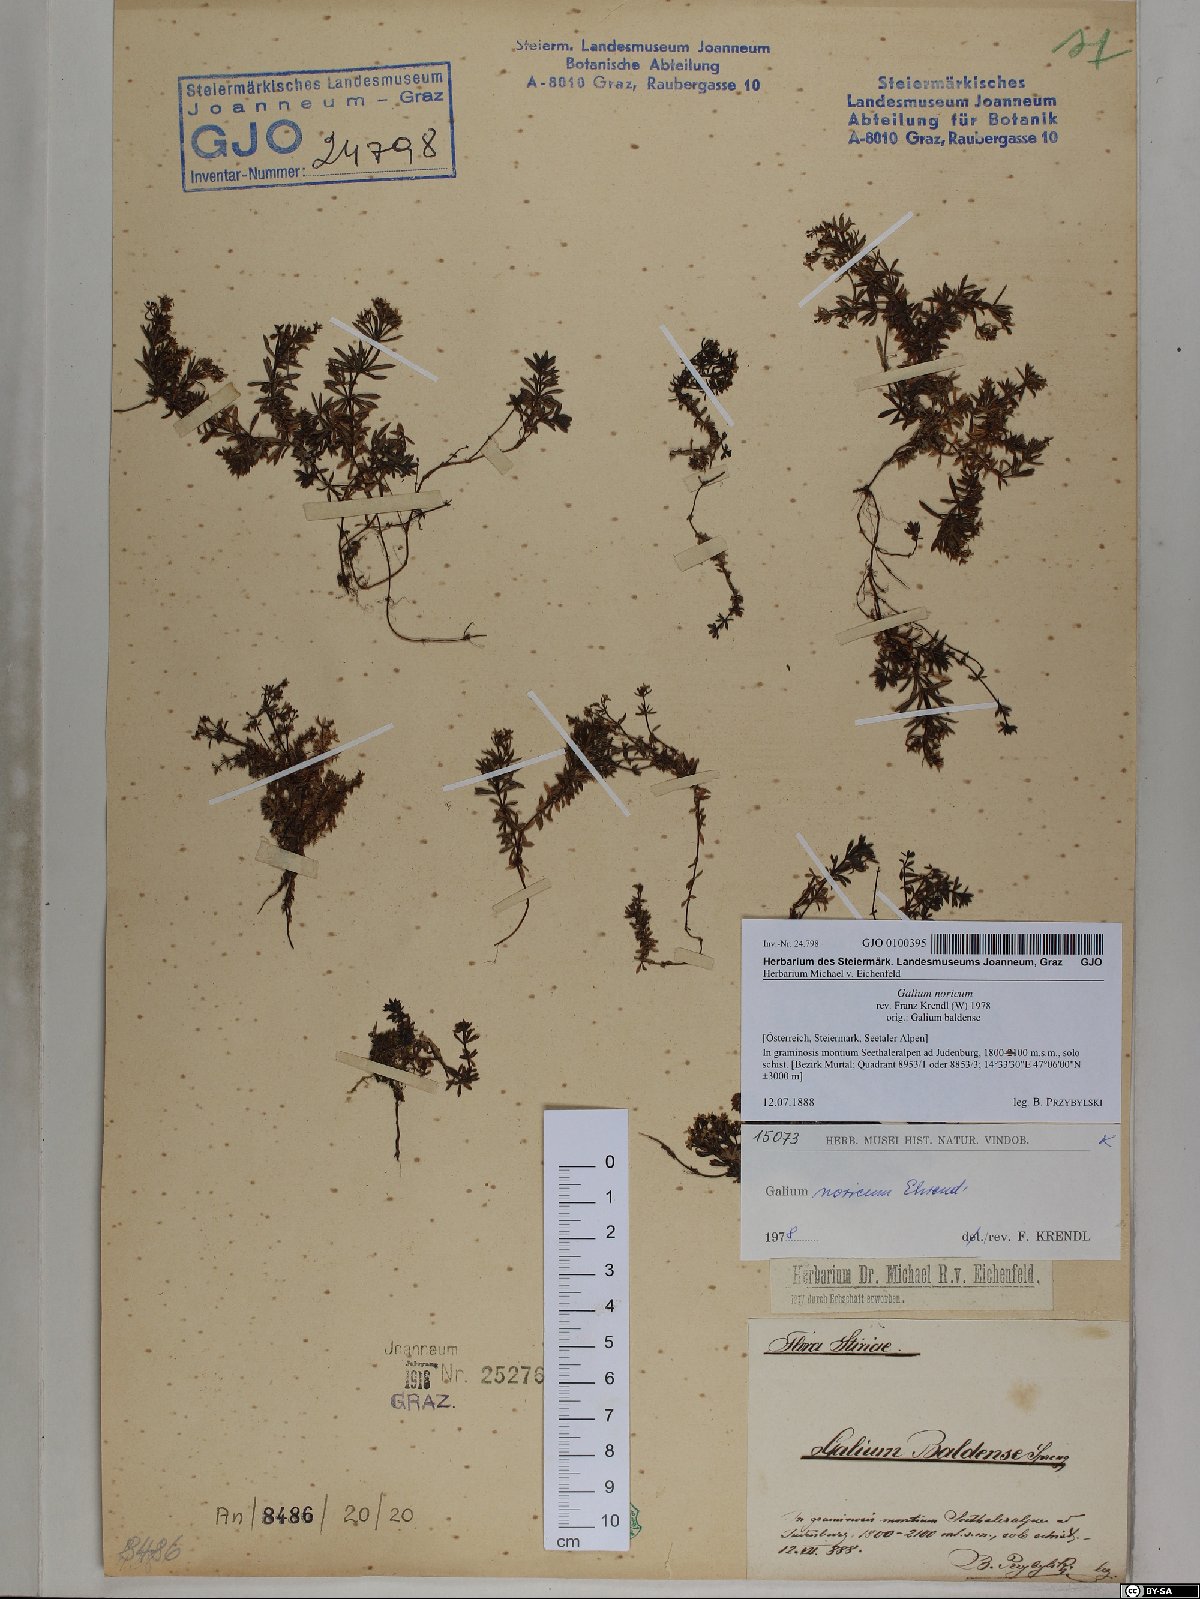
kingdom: Plantae
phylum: Tracheophyta
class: Magnoliopsida
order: Gentianales
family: Rubiaceae
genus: Galium
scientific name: Galium noricum
